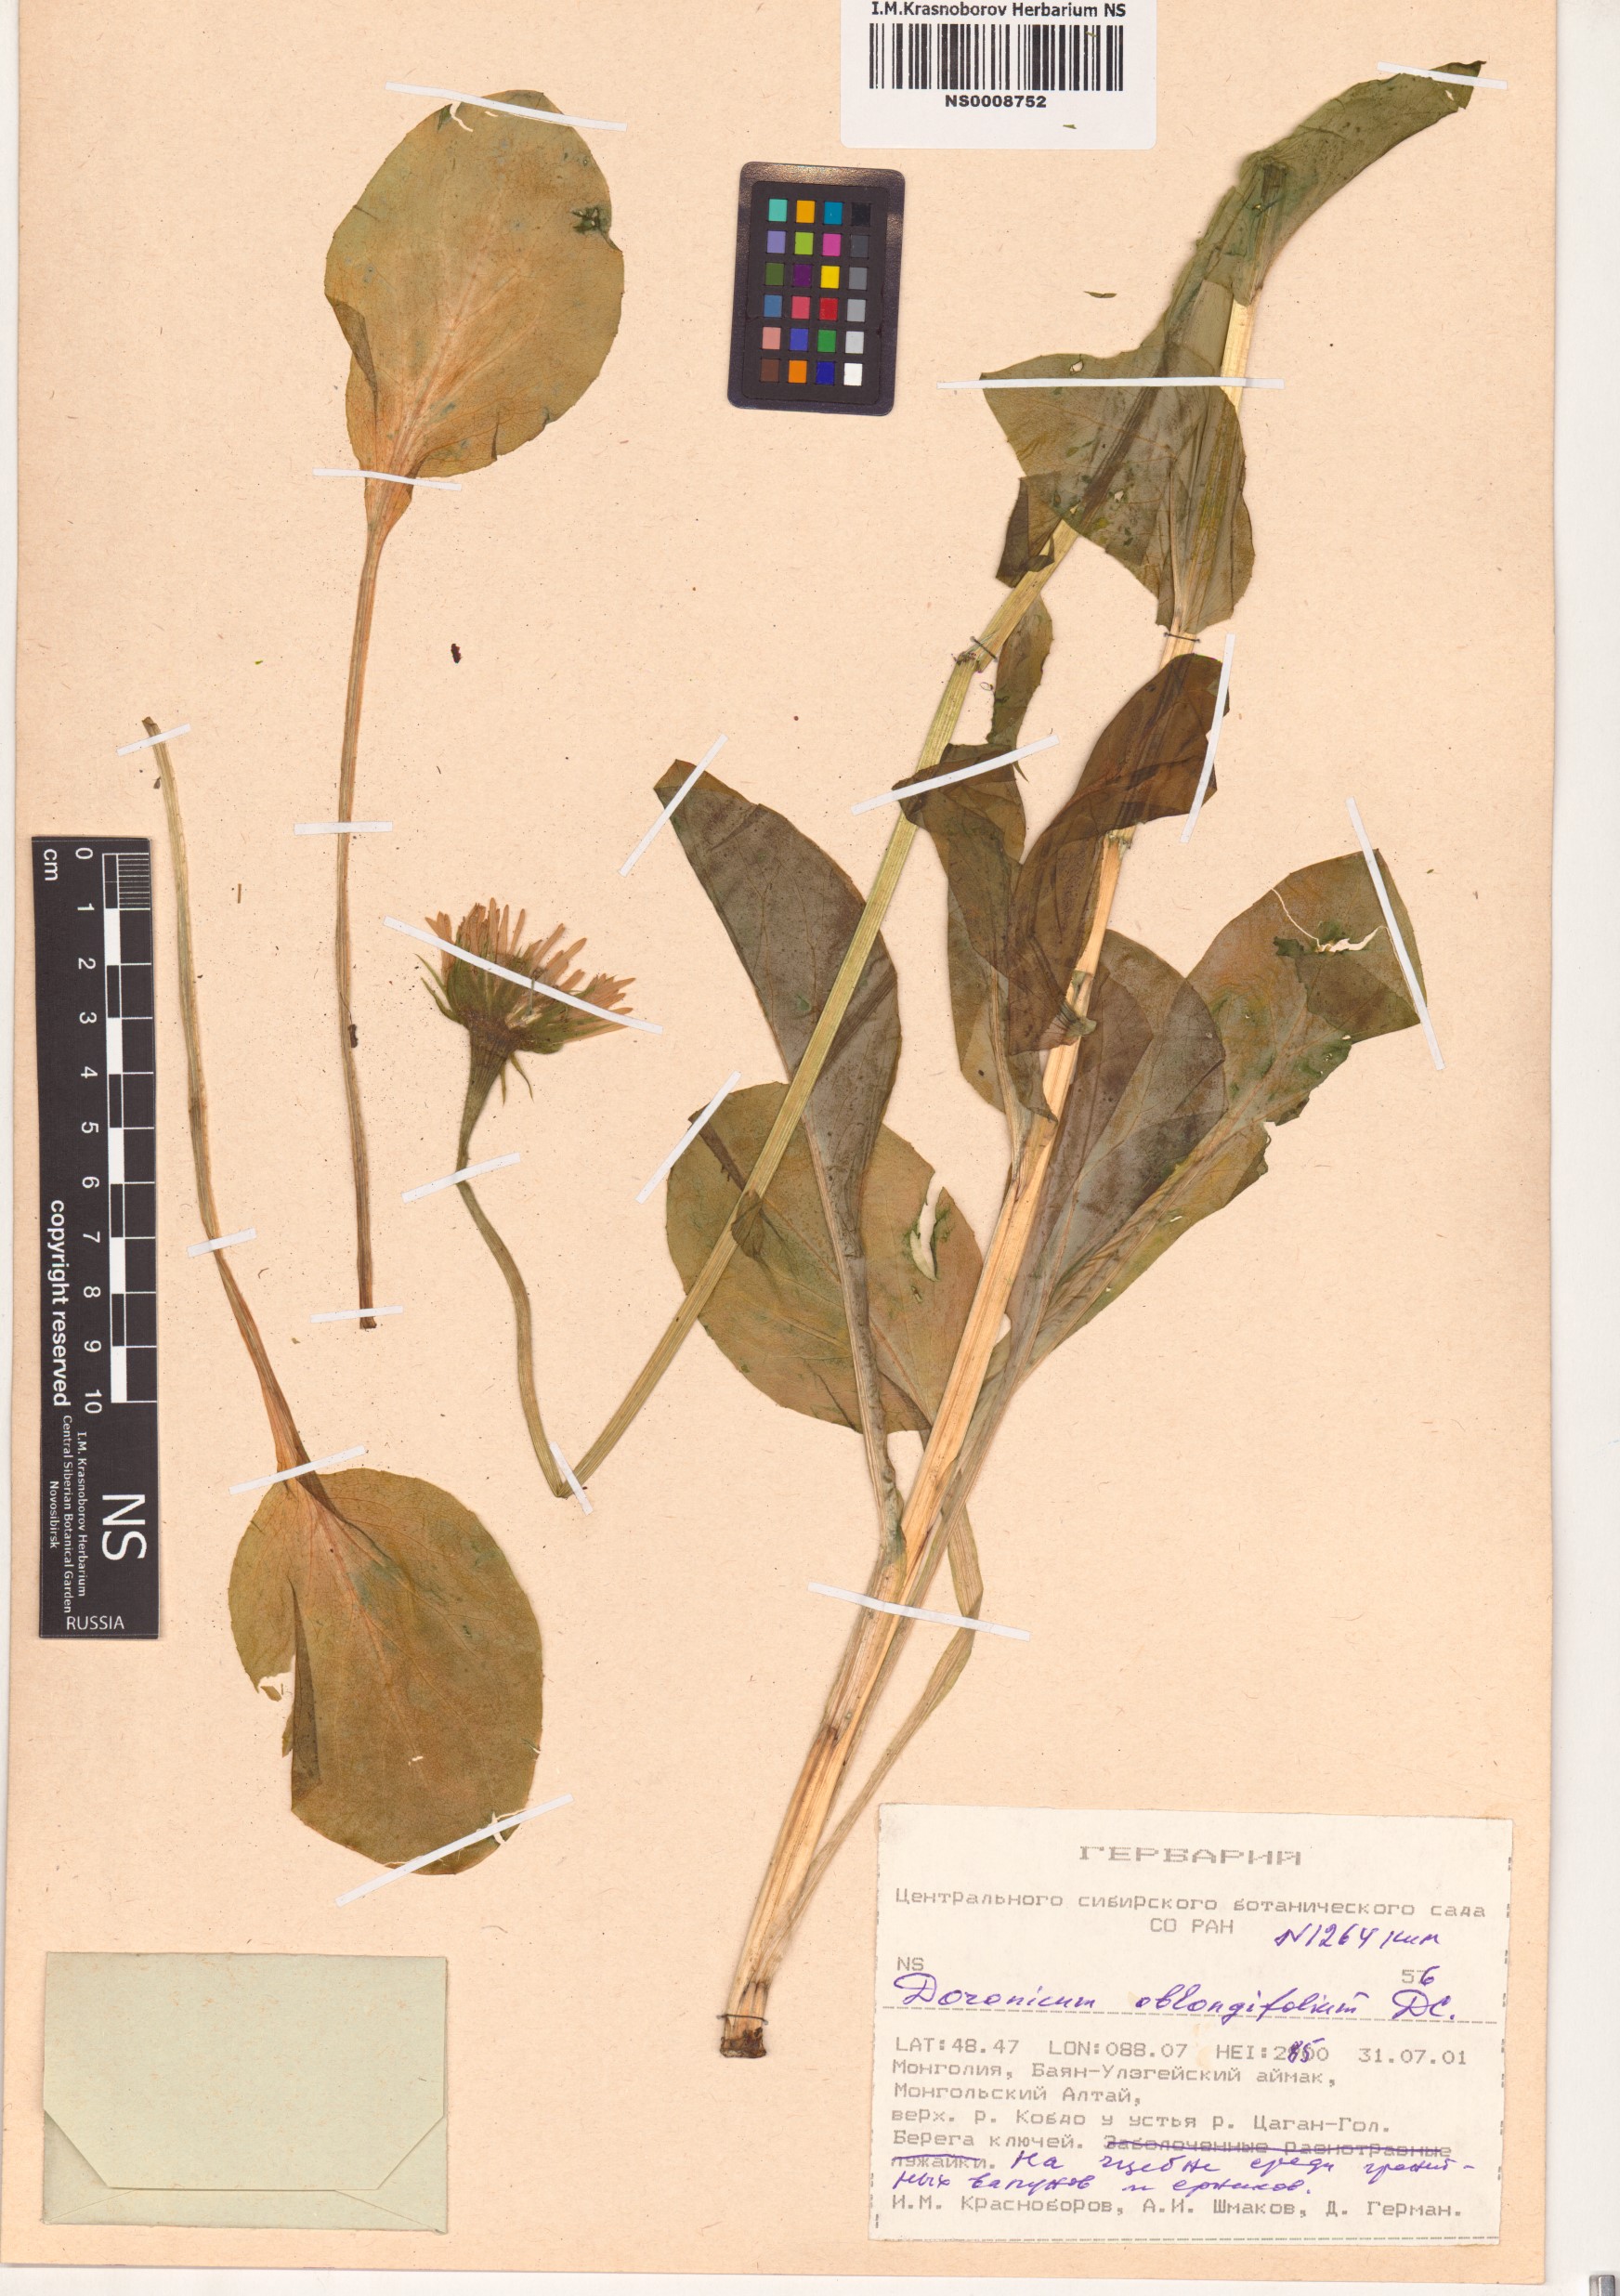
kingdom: Plantae
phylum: Tracheophyta
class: Magnoliopsida
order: Asterales
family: Asteraceae
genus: Doronicum
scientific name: Doronicum oblongifolium
